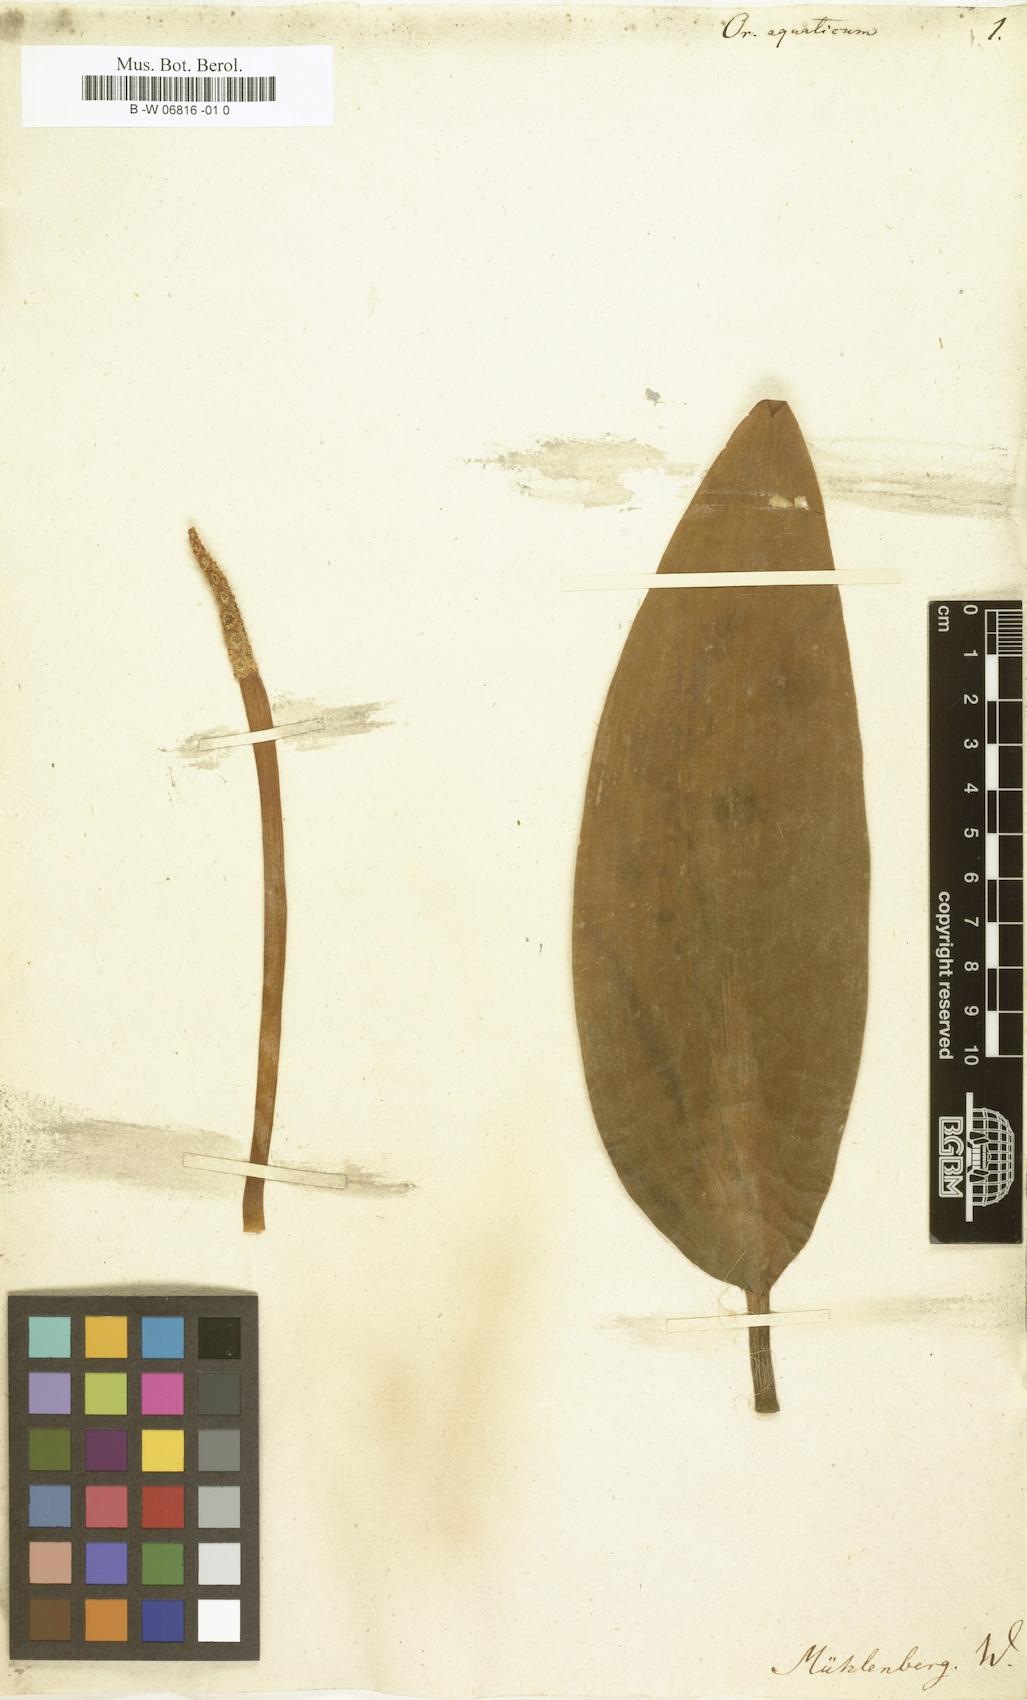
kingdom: Plantae
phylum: Tracheophyta
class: Liliopsida
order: Alismatales
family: Araceae
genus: Orontium
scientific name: Orontium aquaticum
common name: Golden-club
